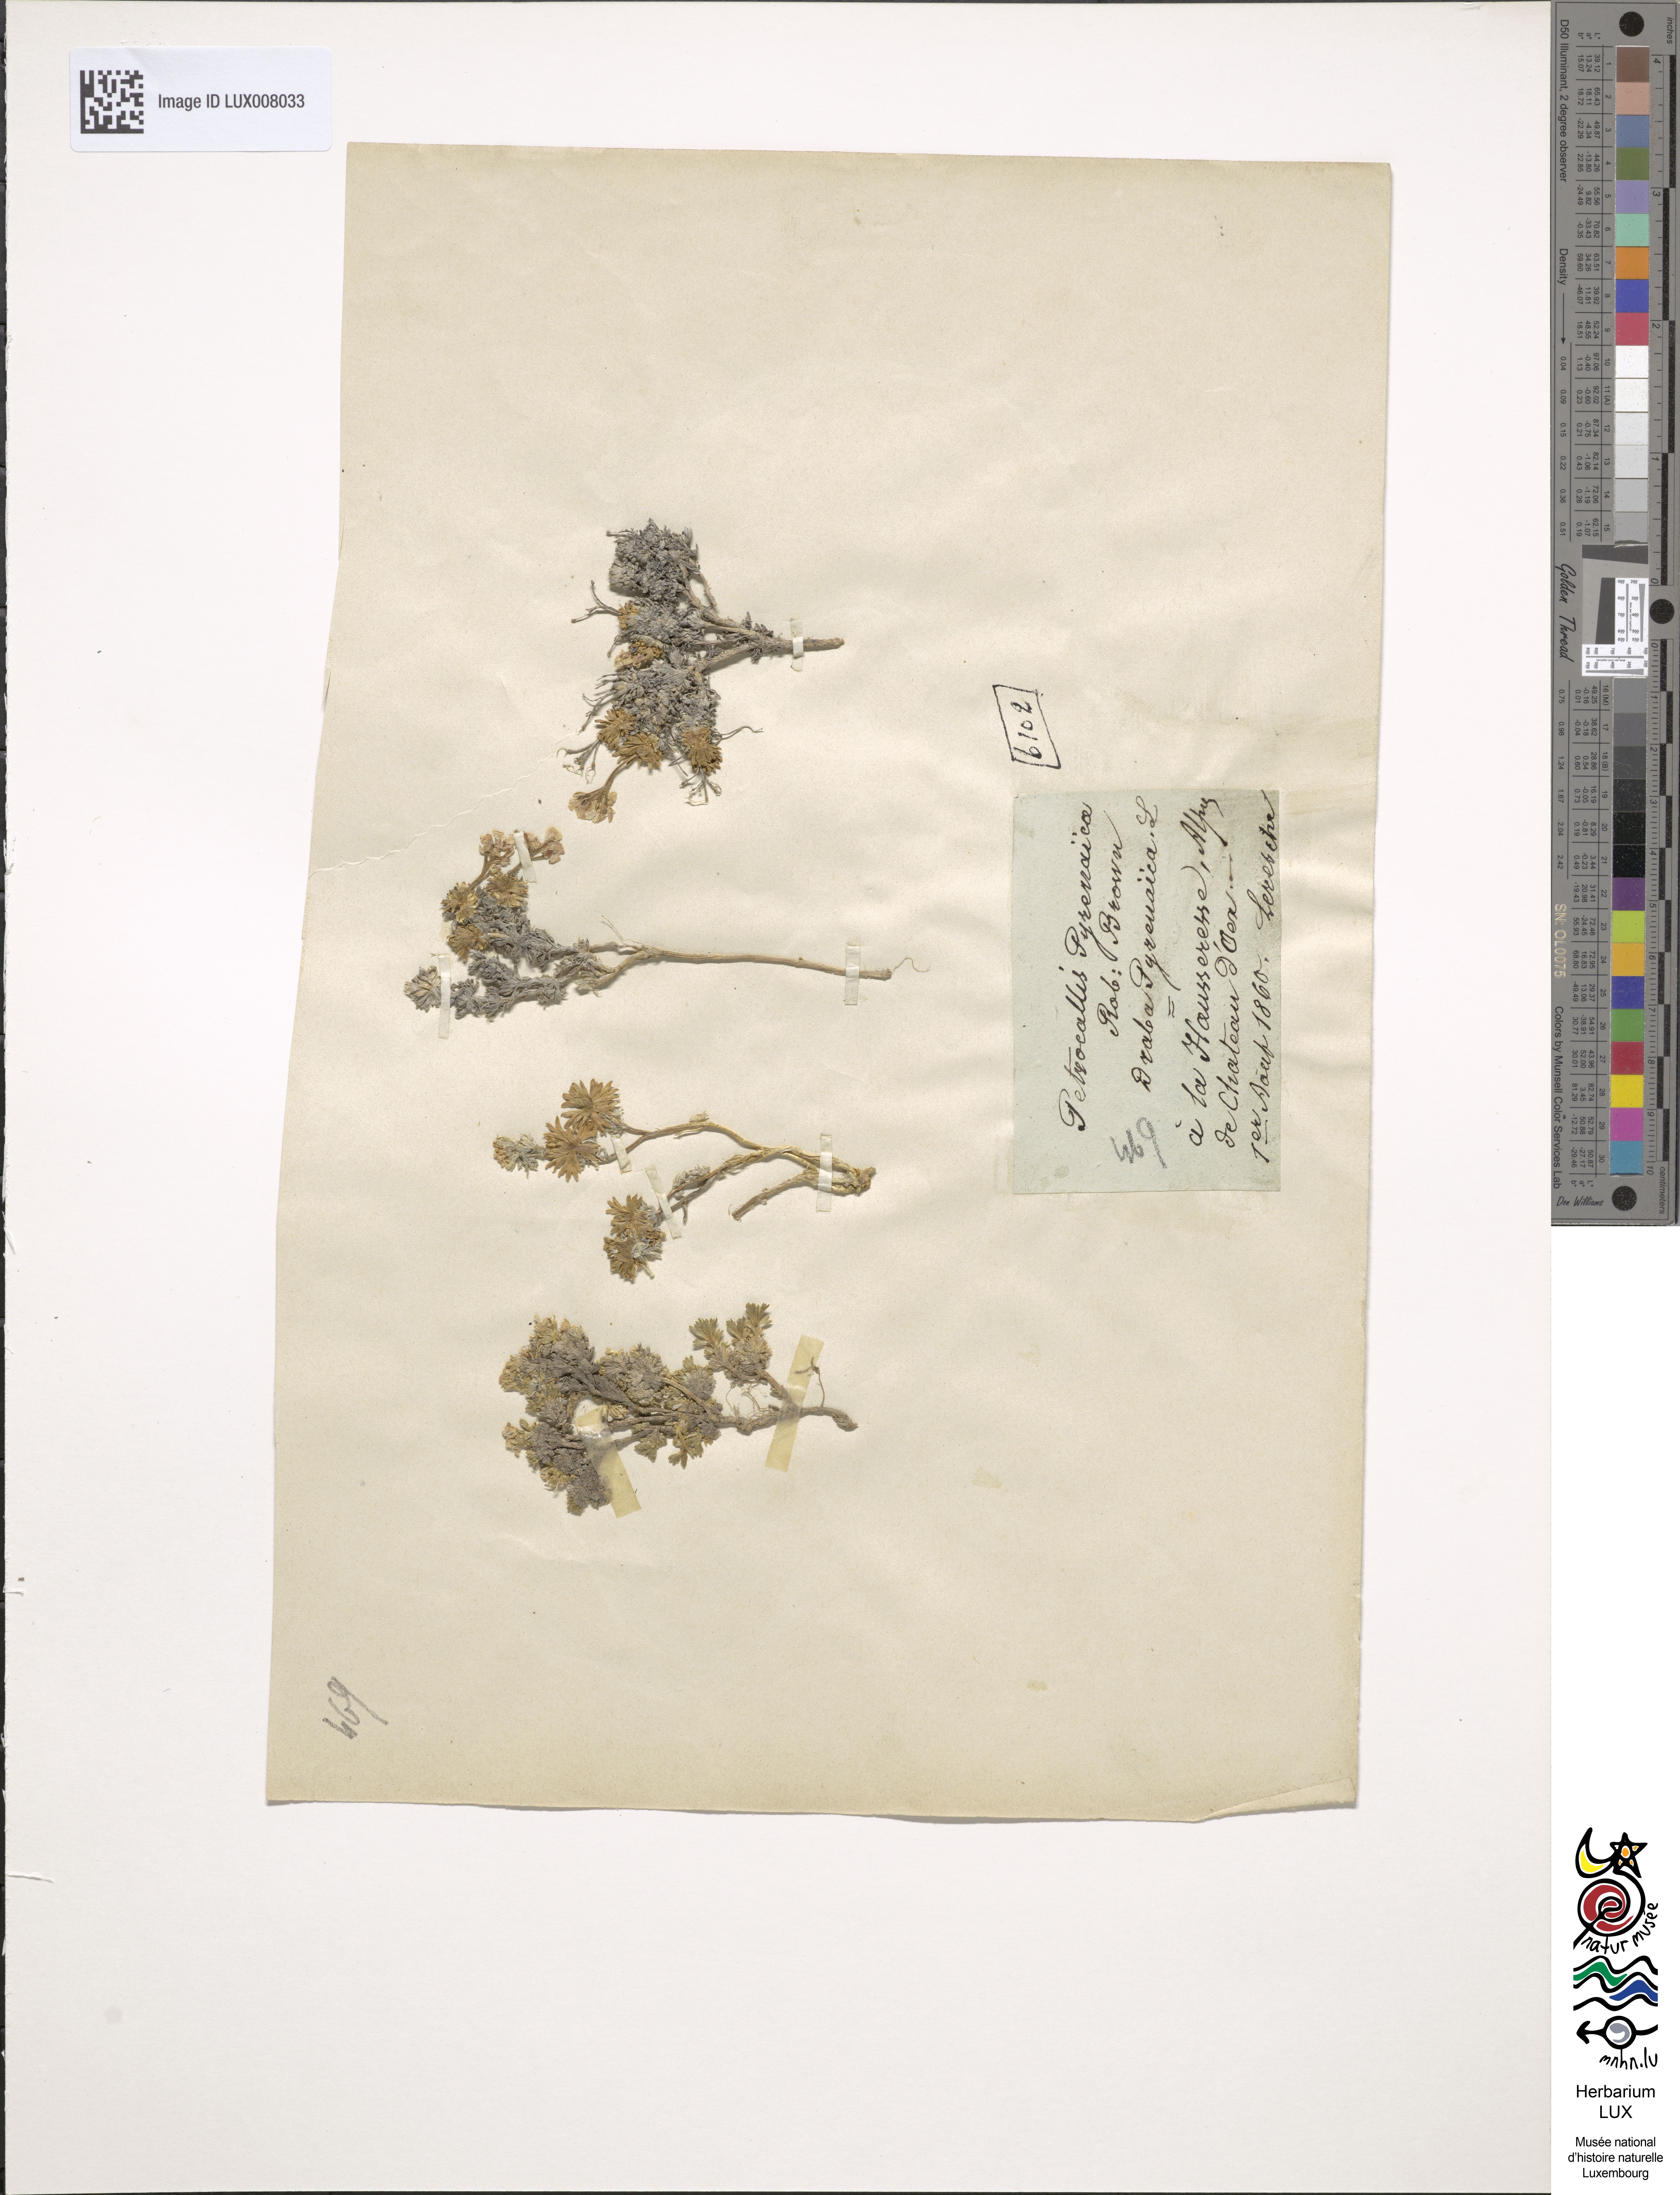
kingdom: Plantae
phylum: Tracheophyta
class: Magnoliopsida
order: Brassicales
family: Brassicaceae
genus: Petrocallis
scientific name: Petrocallis pyrenaica
